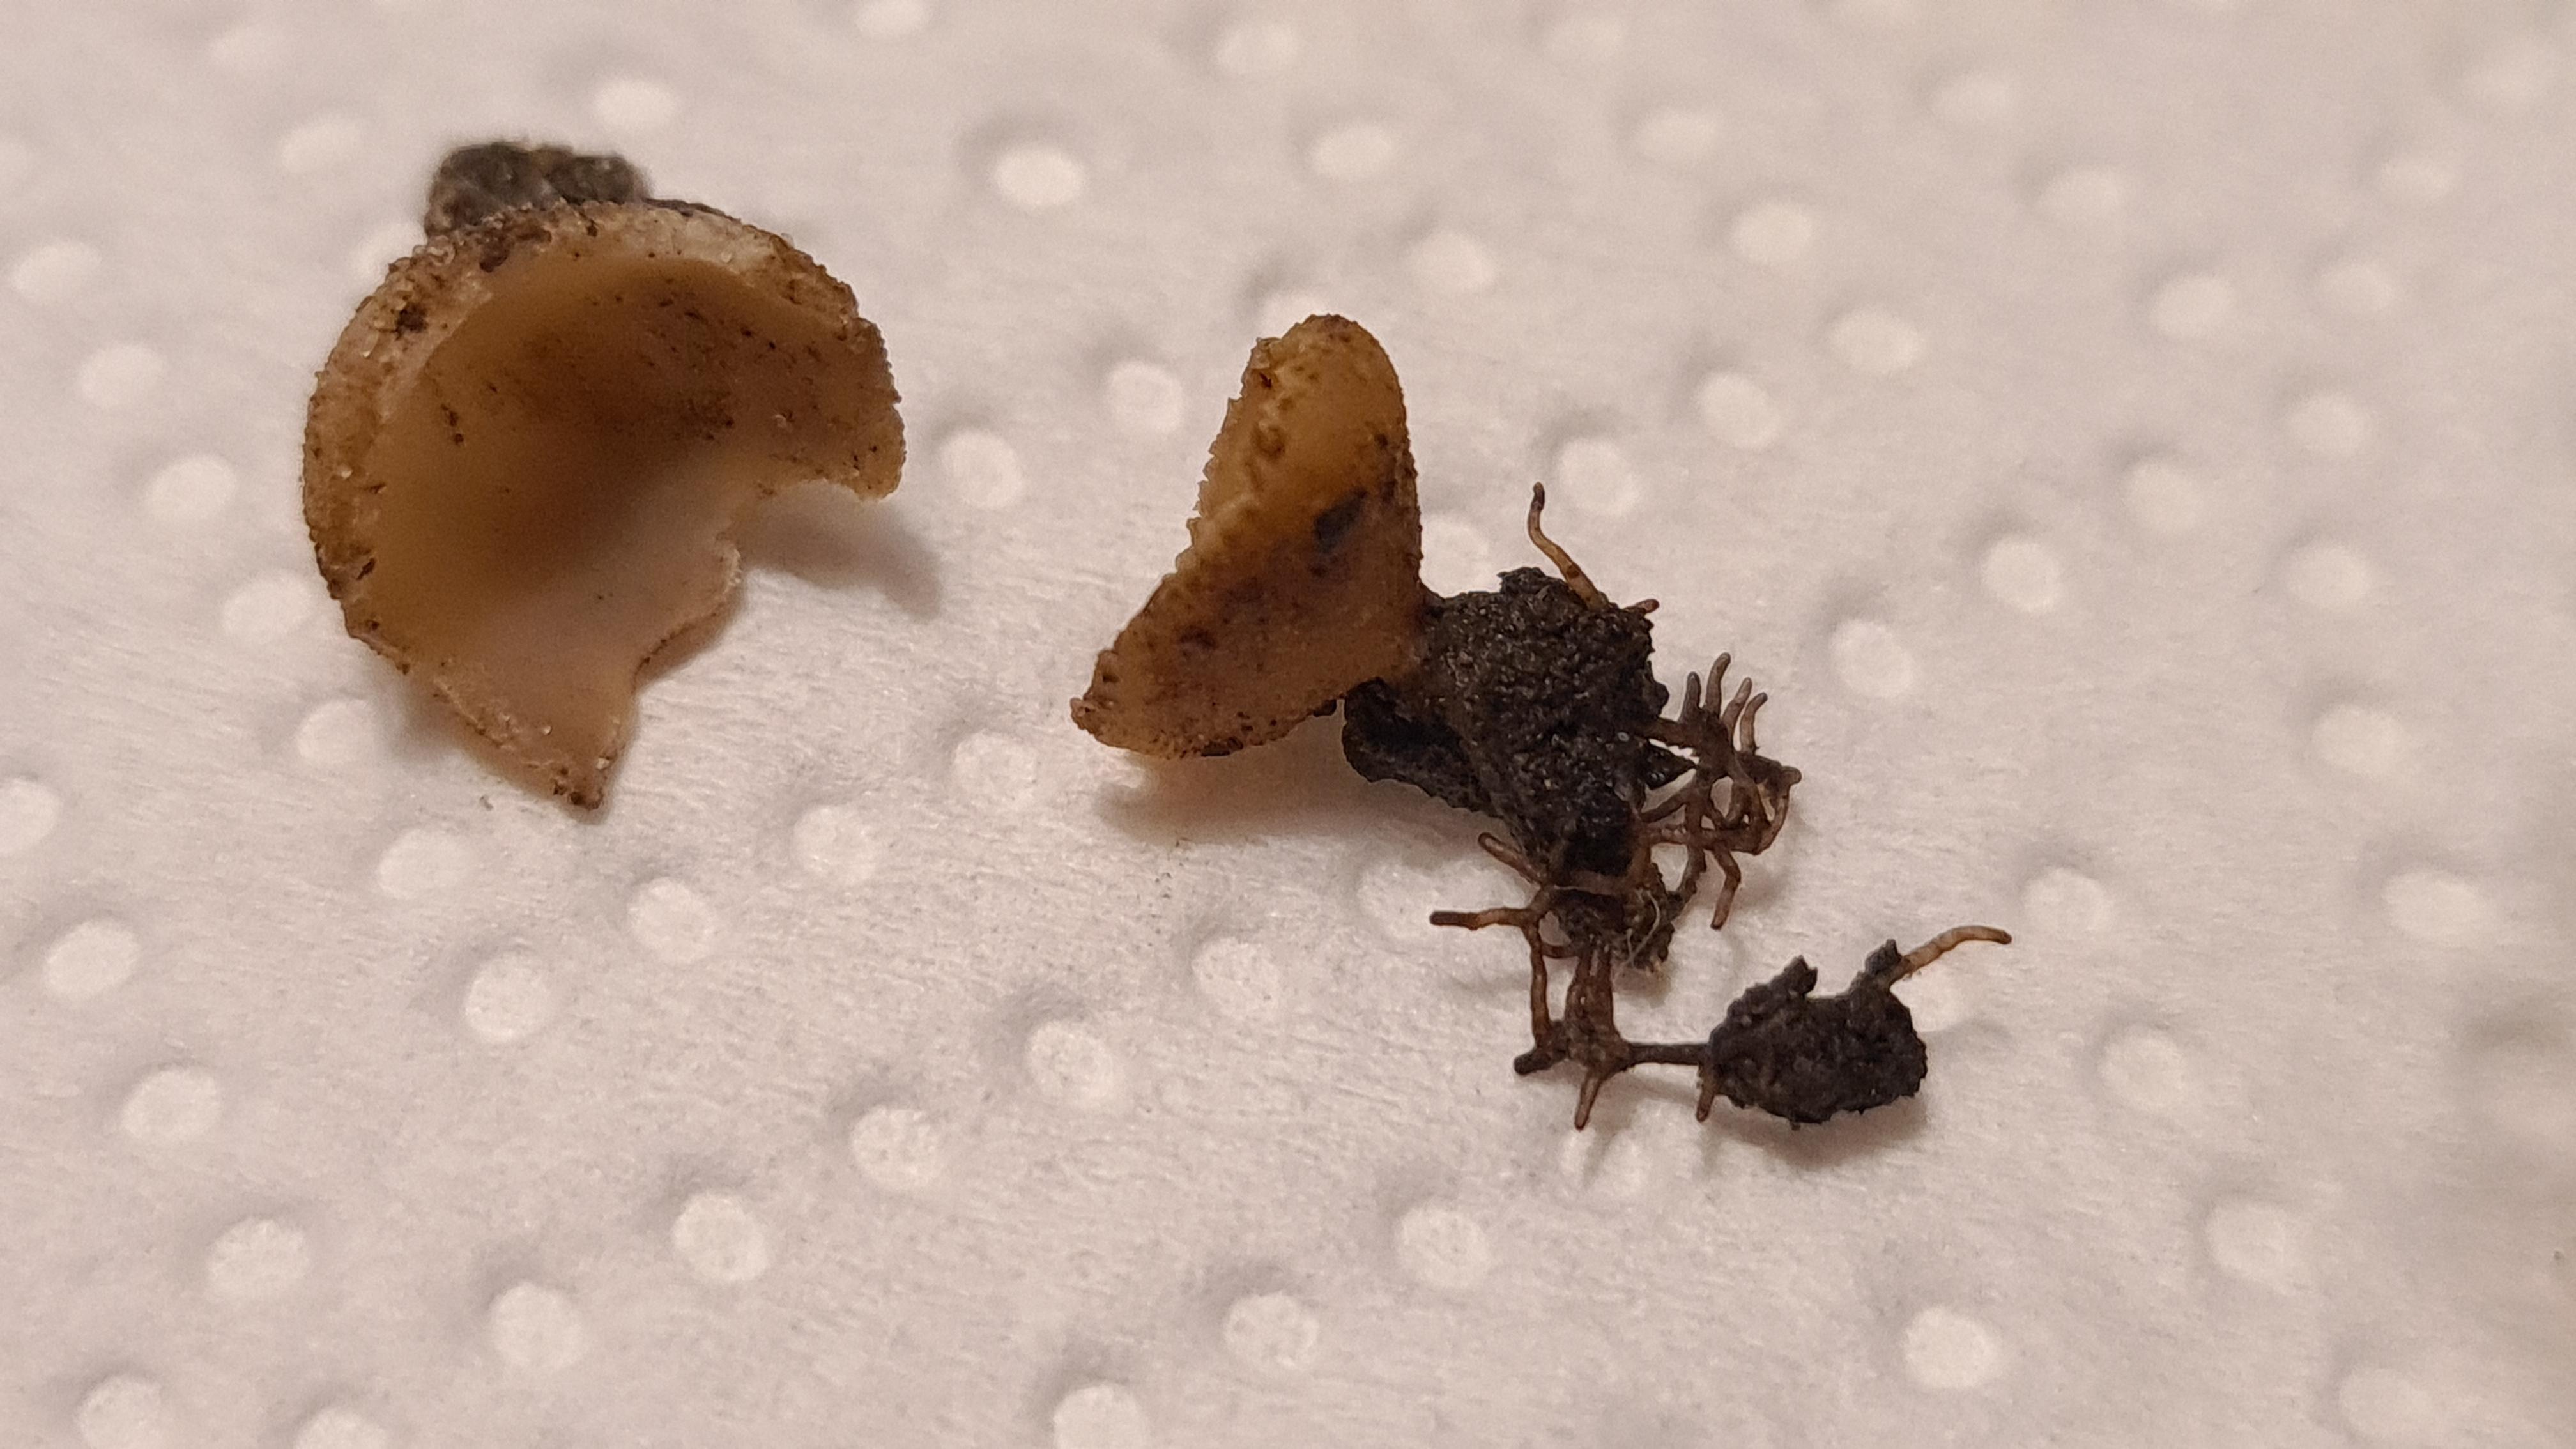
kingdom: Fungi
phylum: Ascomycota
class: Pezizomycetes
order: Pezizales
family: Pyronemataceae
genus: Tarzetta
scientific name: Tarzetta
